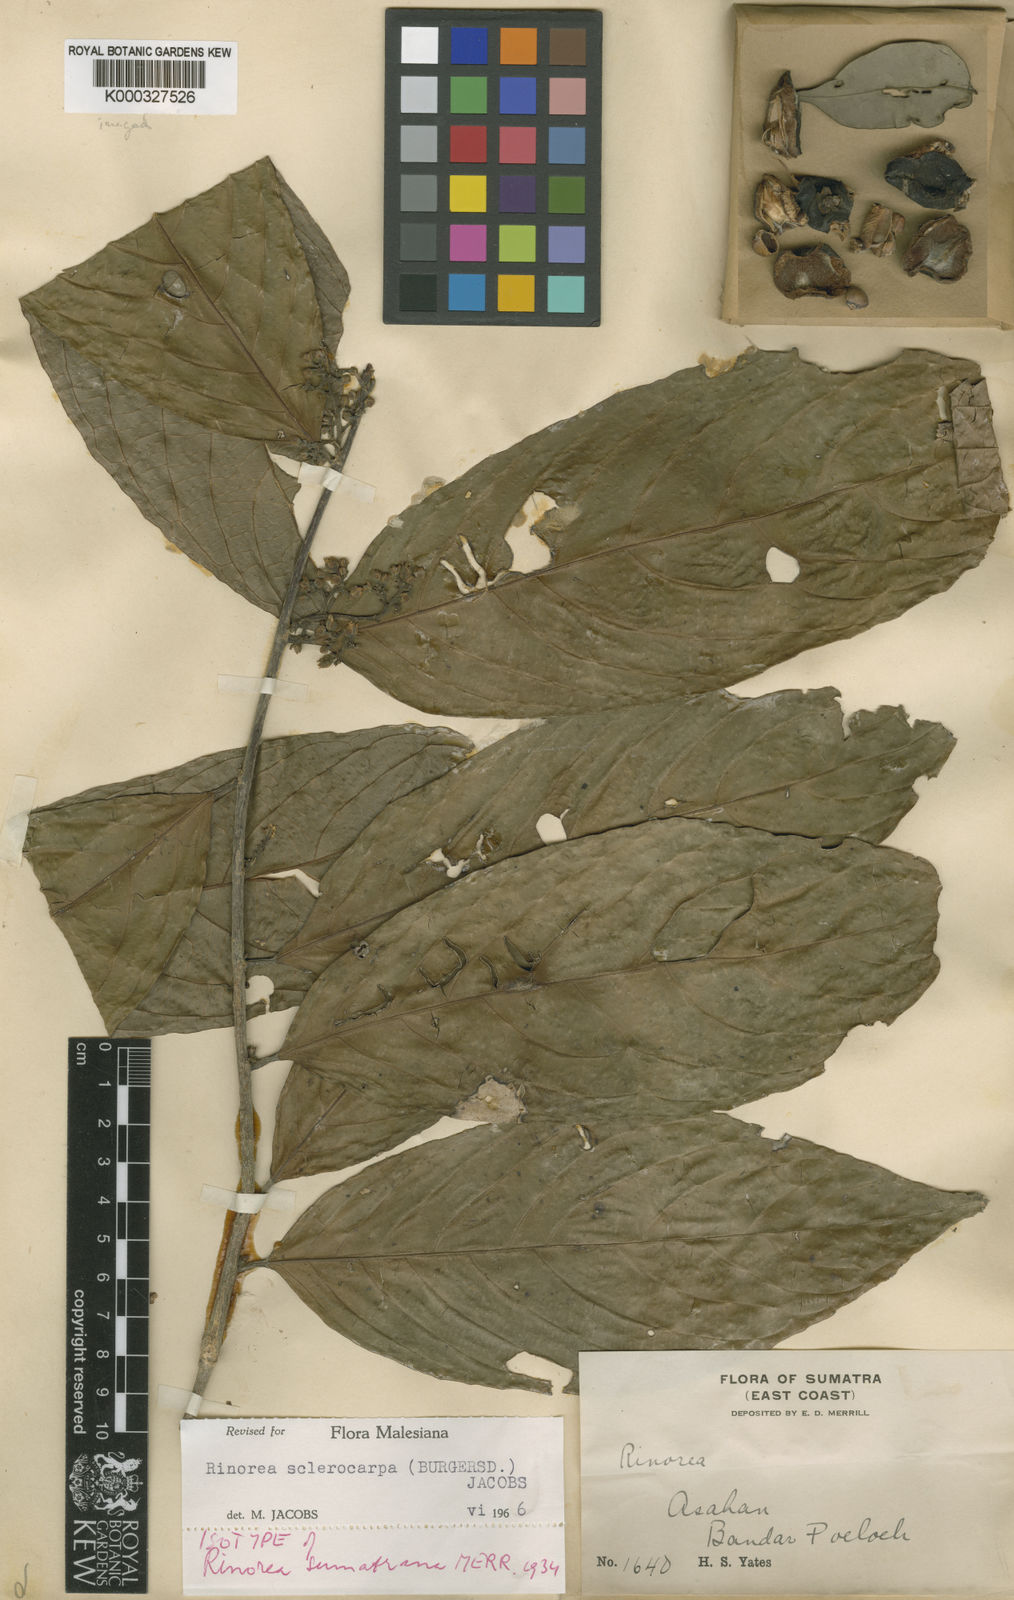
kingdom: Plantae
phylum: Tracheophyta
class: Magnoliopsida
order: Malpighiales
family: Violaceae
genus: Rinorea
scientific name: Rinorea
